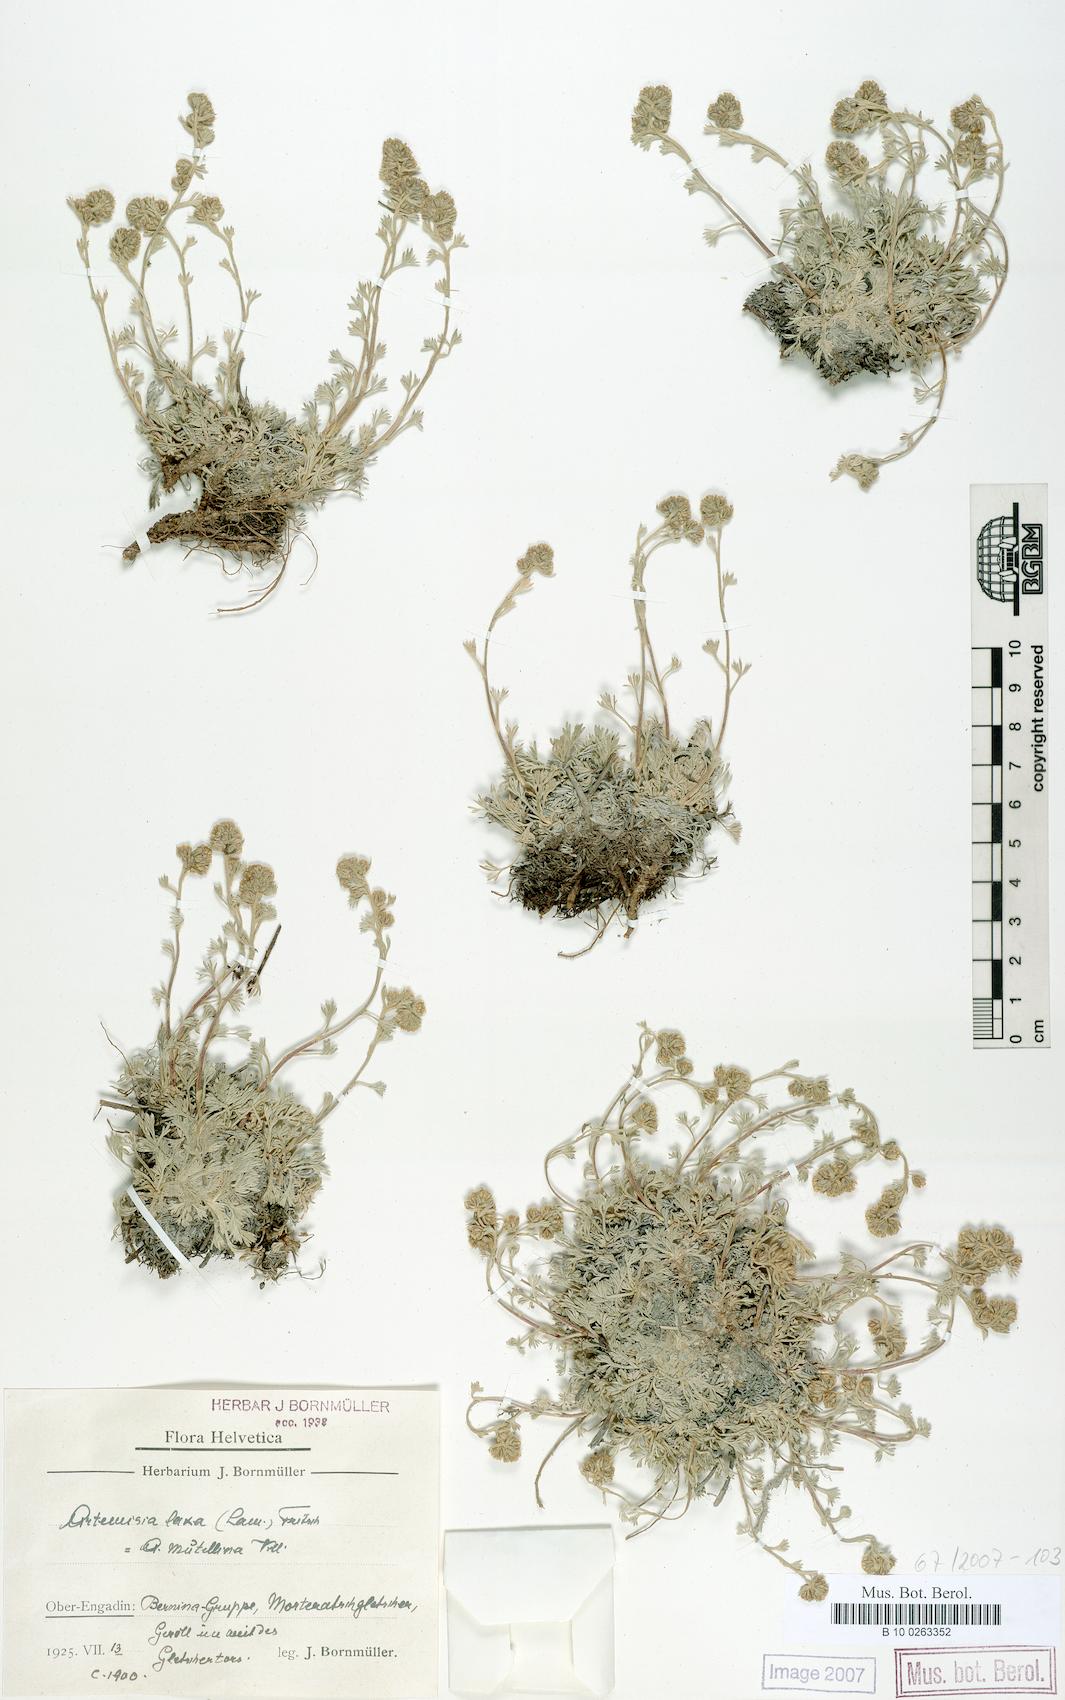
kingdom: Plantae
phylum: Tracheophyta
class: Magnoliopsida
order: Asterales
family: Asteraceae
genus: Artemisia
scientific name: Artemisia mutellina
